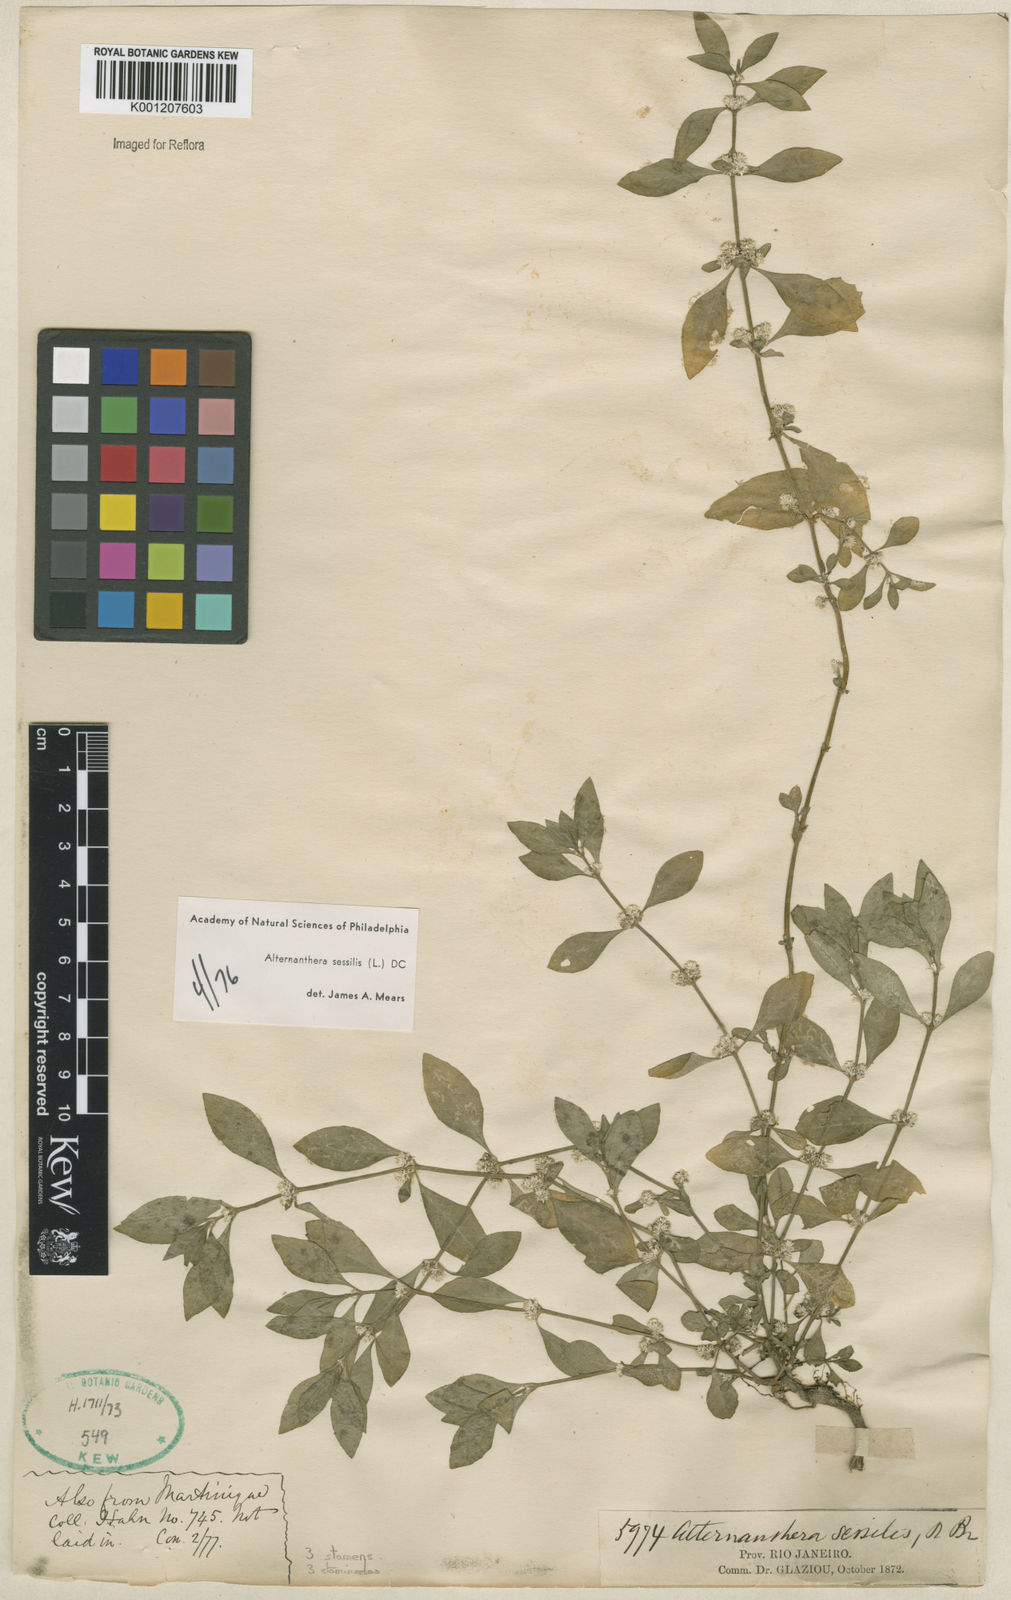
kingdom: Plantae
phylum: Tracheophyta
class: Magnoliopsida
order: Caryophyllales
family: Amaranthaceae
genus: Alternanthera
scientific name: Alternanthera
